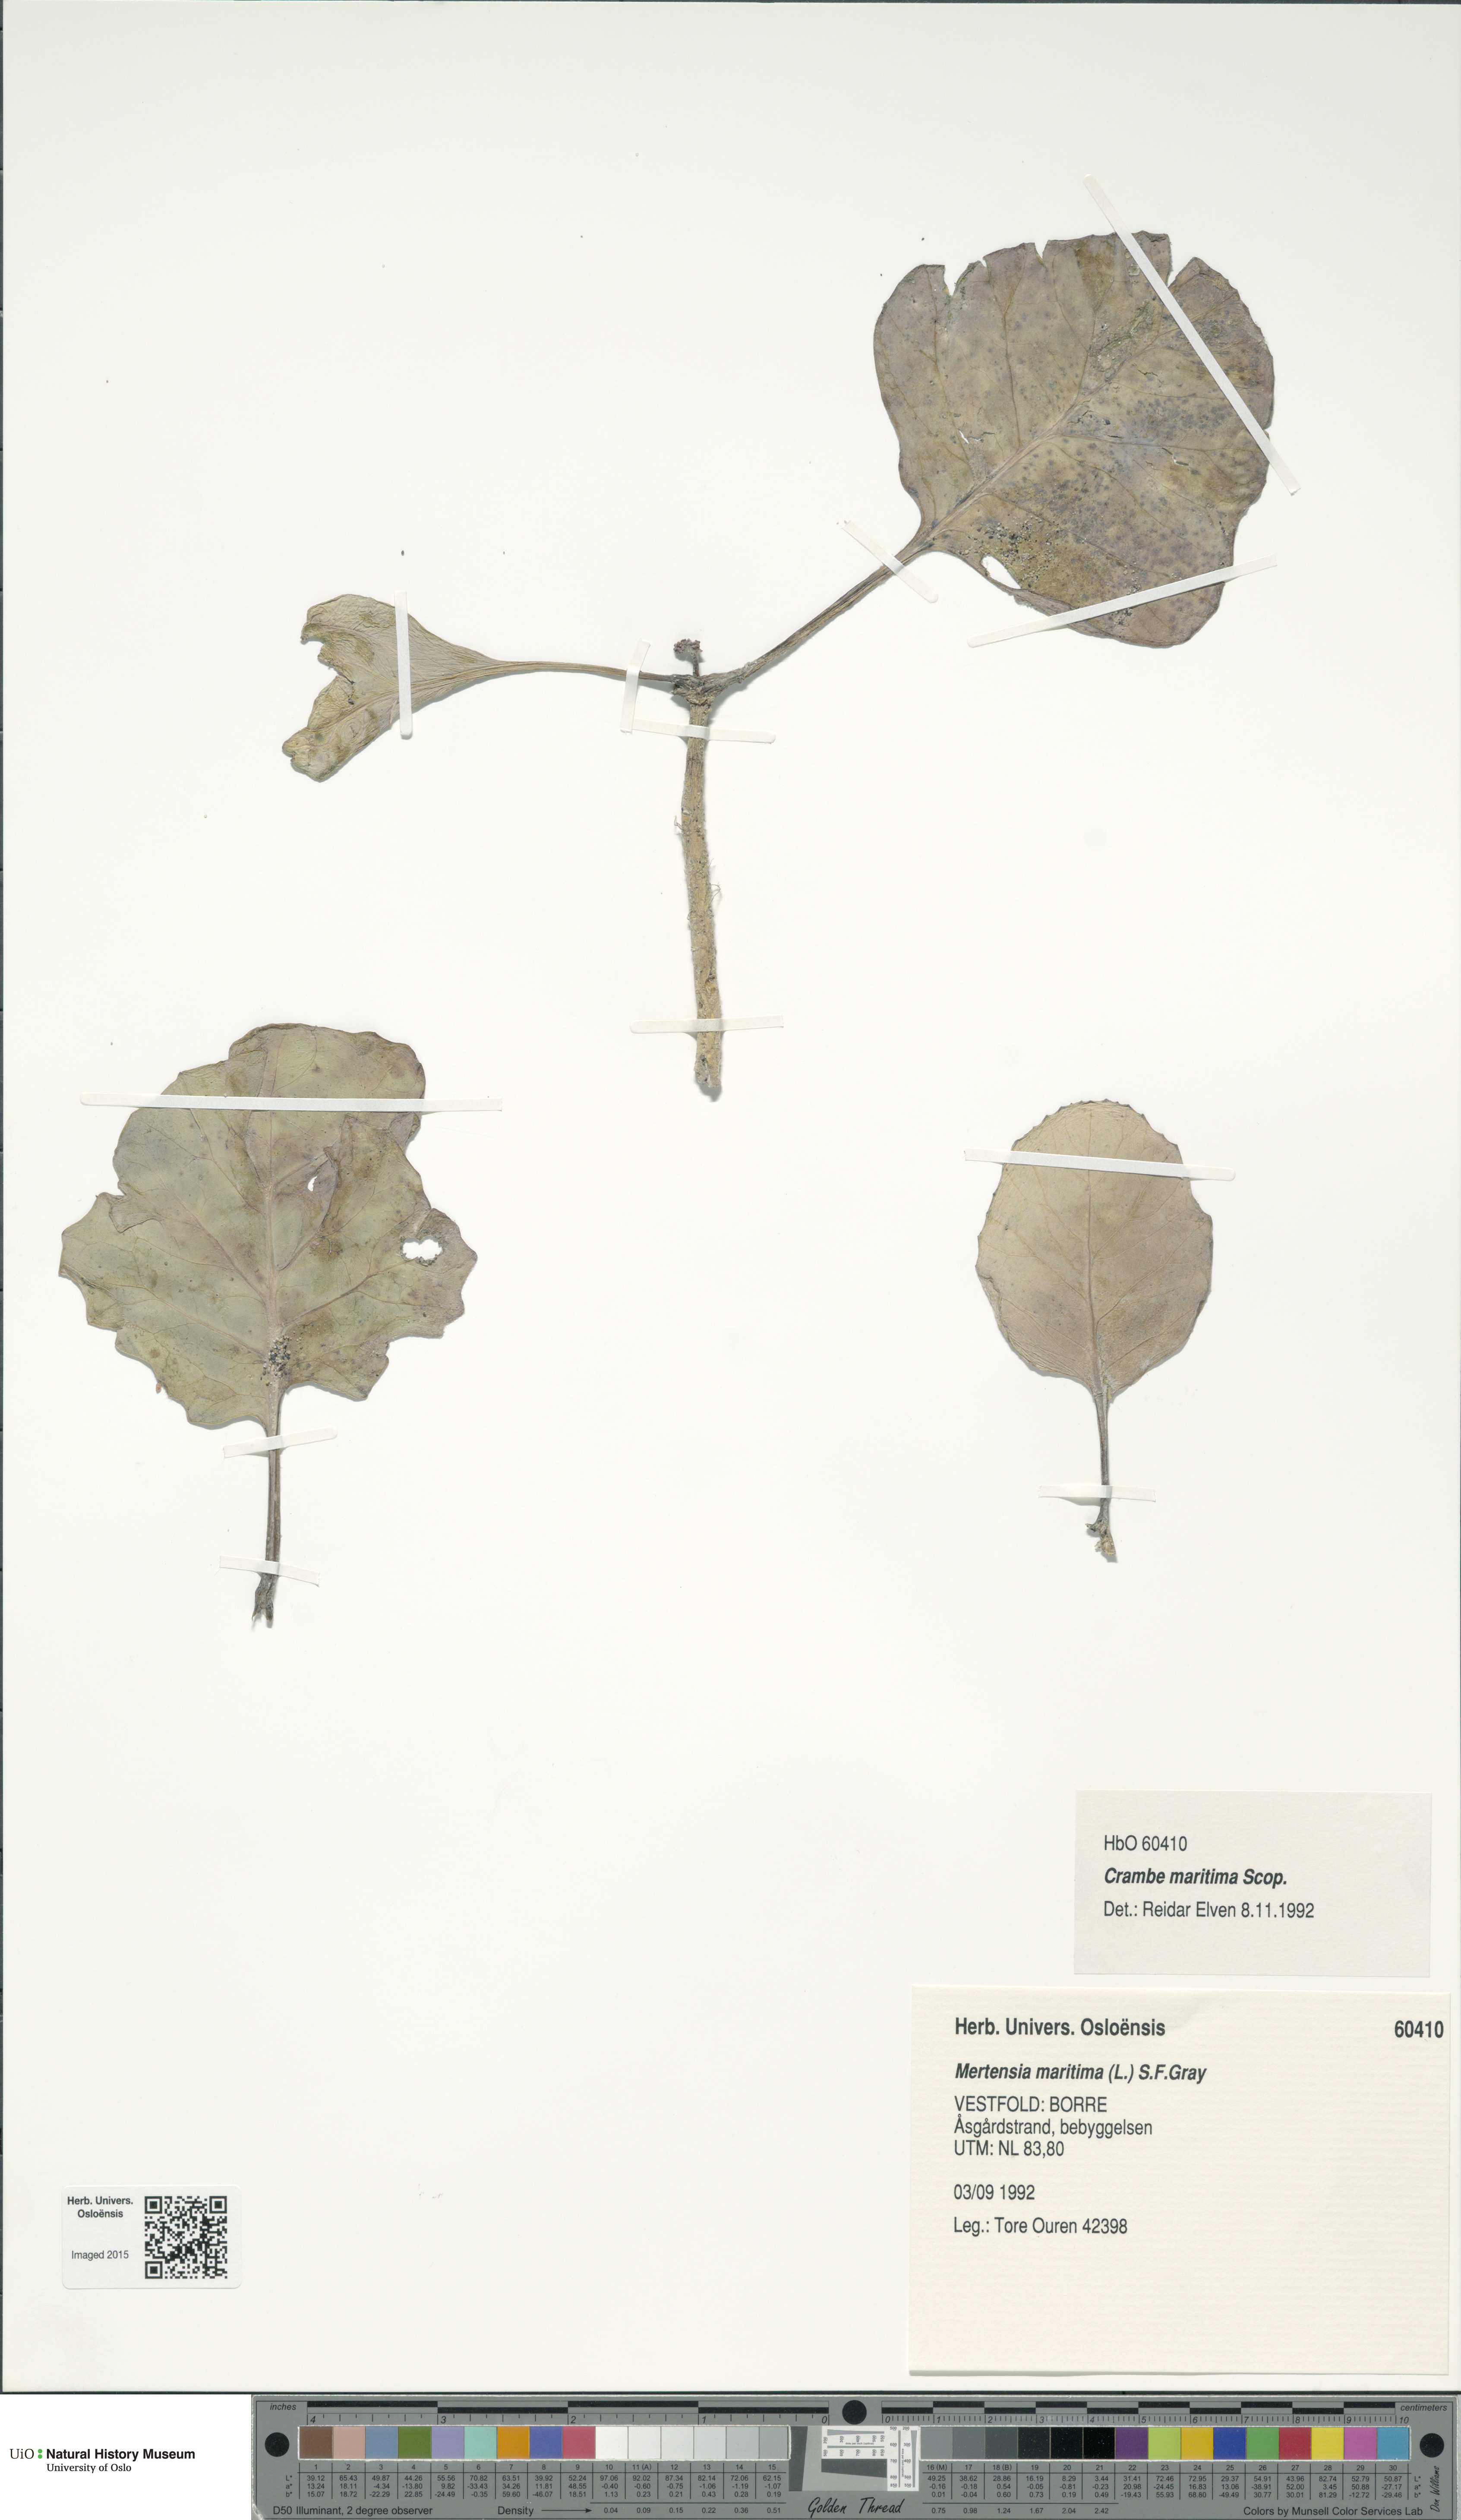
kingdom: Plantae
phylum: Tracheophyta
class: Magnoliopsida
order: Brassicales
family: Brassicaceae
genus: Crambe
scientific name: Crambe maritima
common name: Sea-kale
